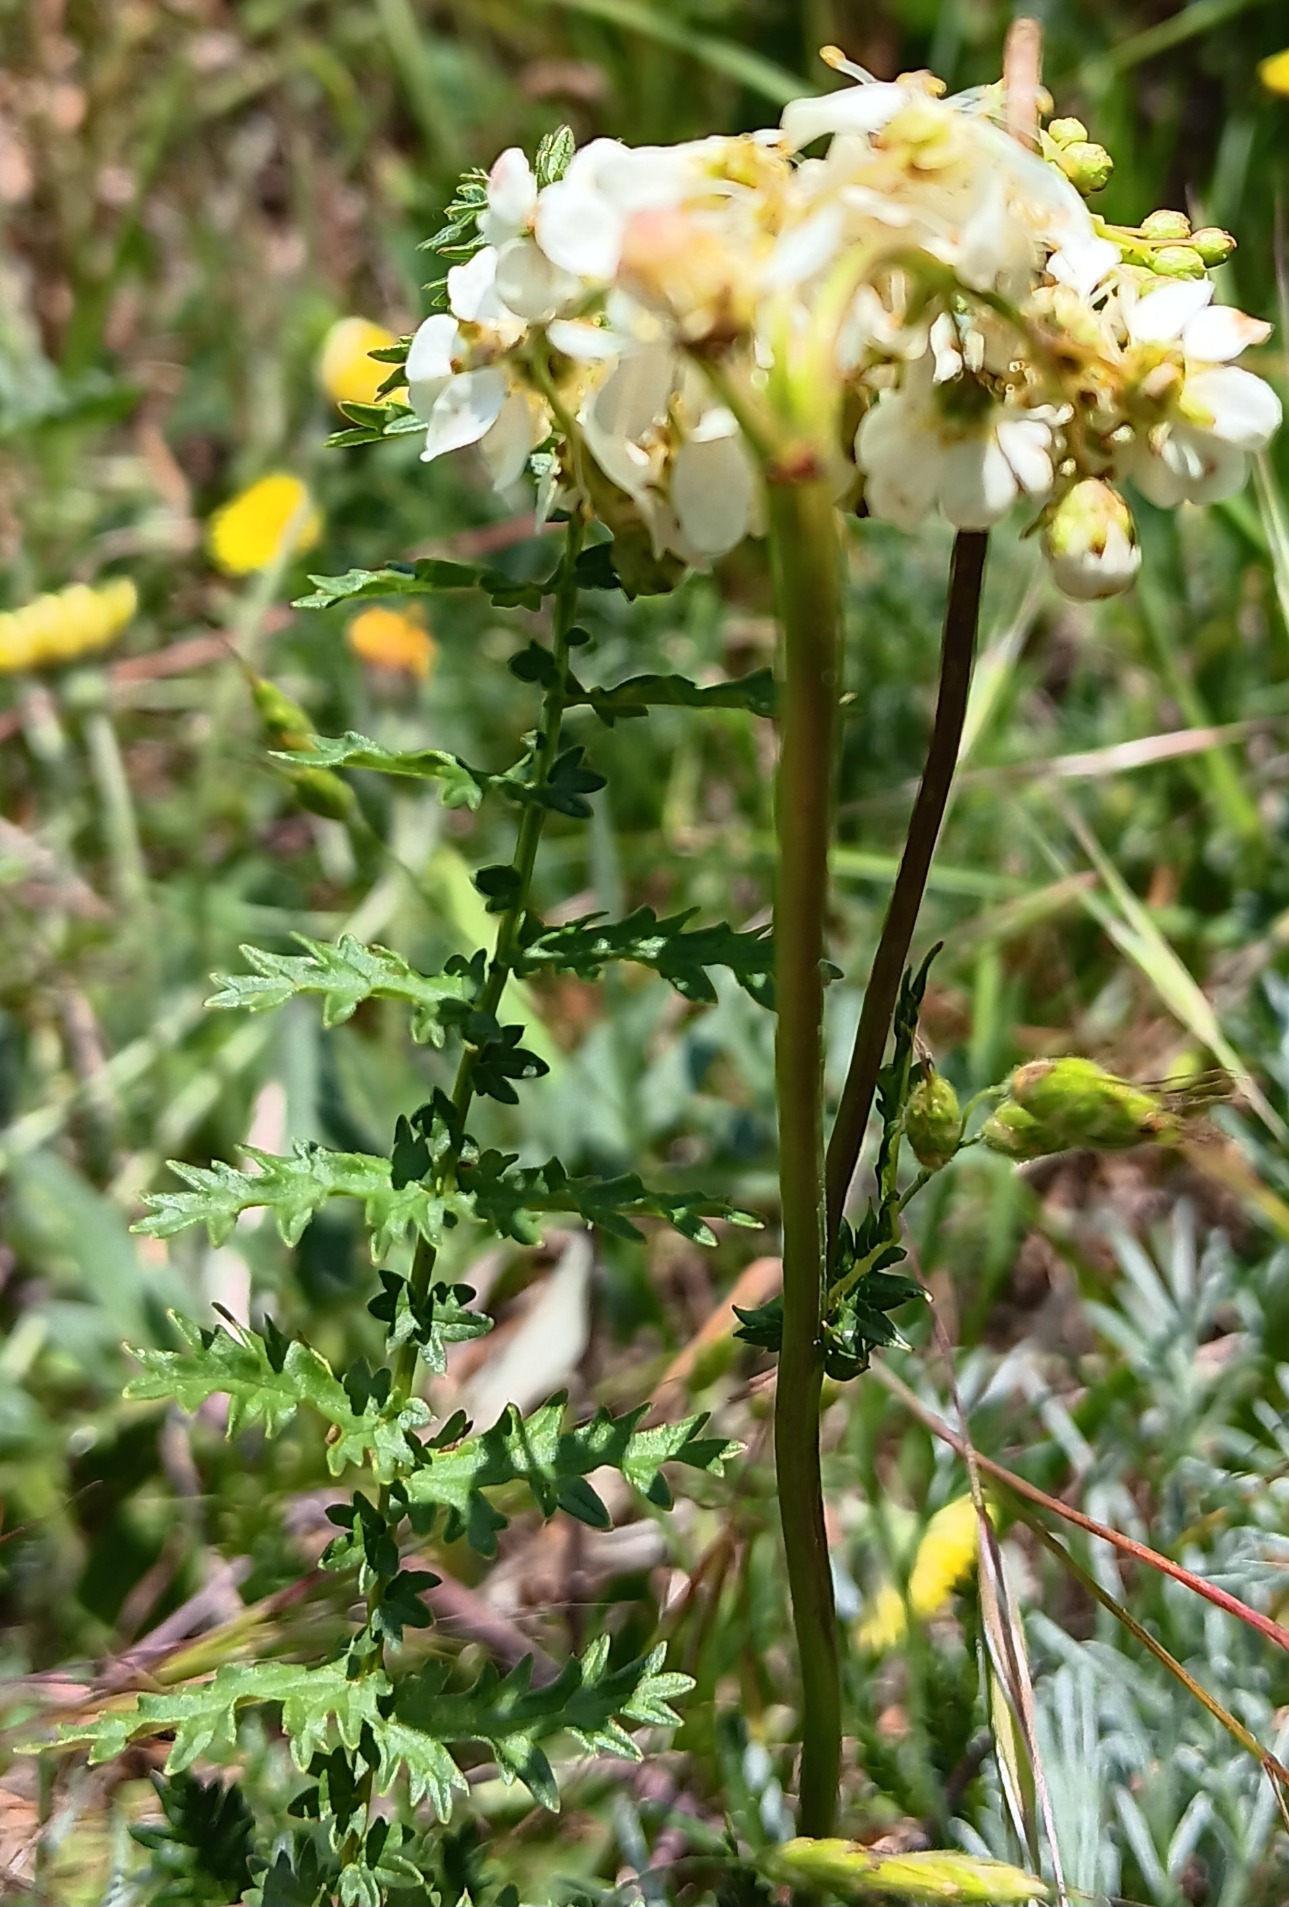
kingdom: Plantae
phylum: Tracheophyta
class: Magnoliopsida
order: Rosales
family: Rosaceae
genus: Filipendula
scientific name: Filipendula vulgaris
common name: Knoldet mjødurt
